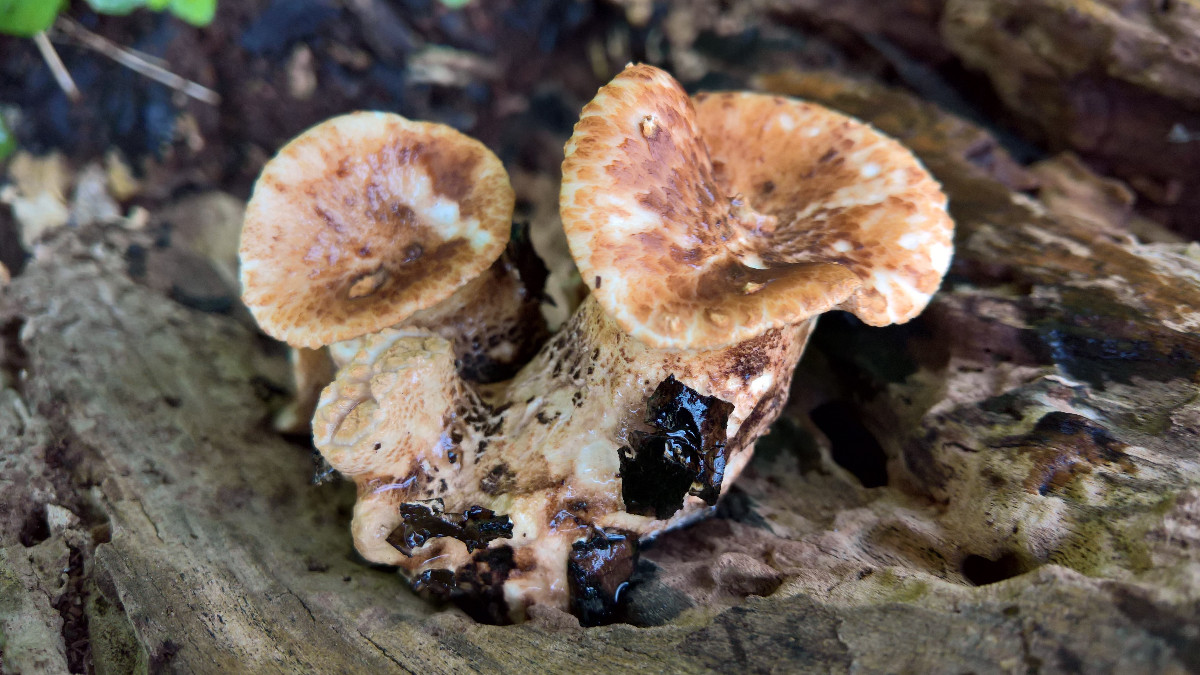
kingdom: Fungi
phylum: Basidiomycota
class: Agaricomycetes
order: Polyporales
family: Polyporaceae
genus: Cerioporus
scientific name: Cerioporus squamosus
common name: skællet stilkporesvamp
